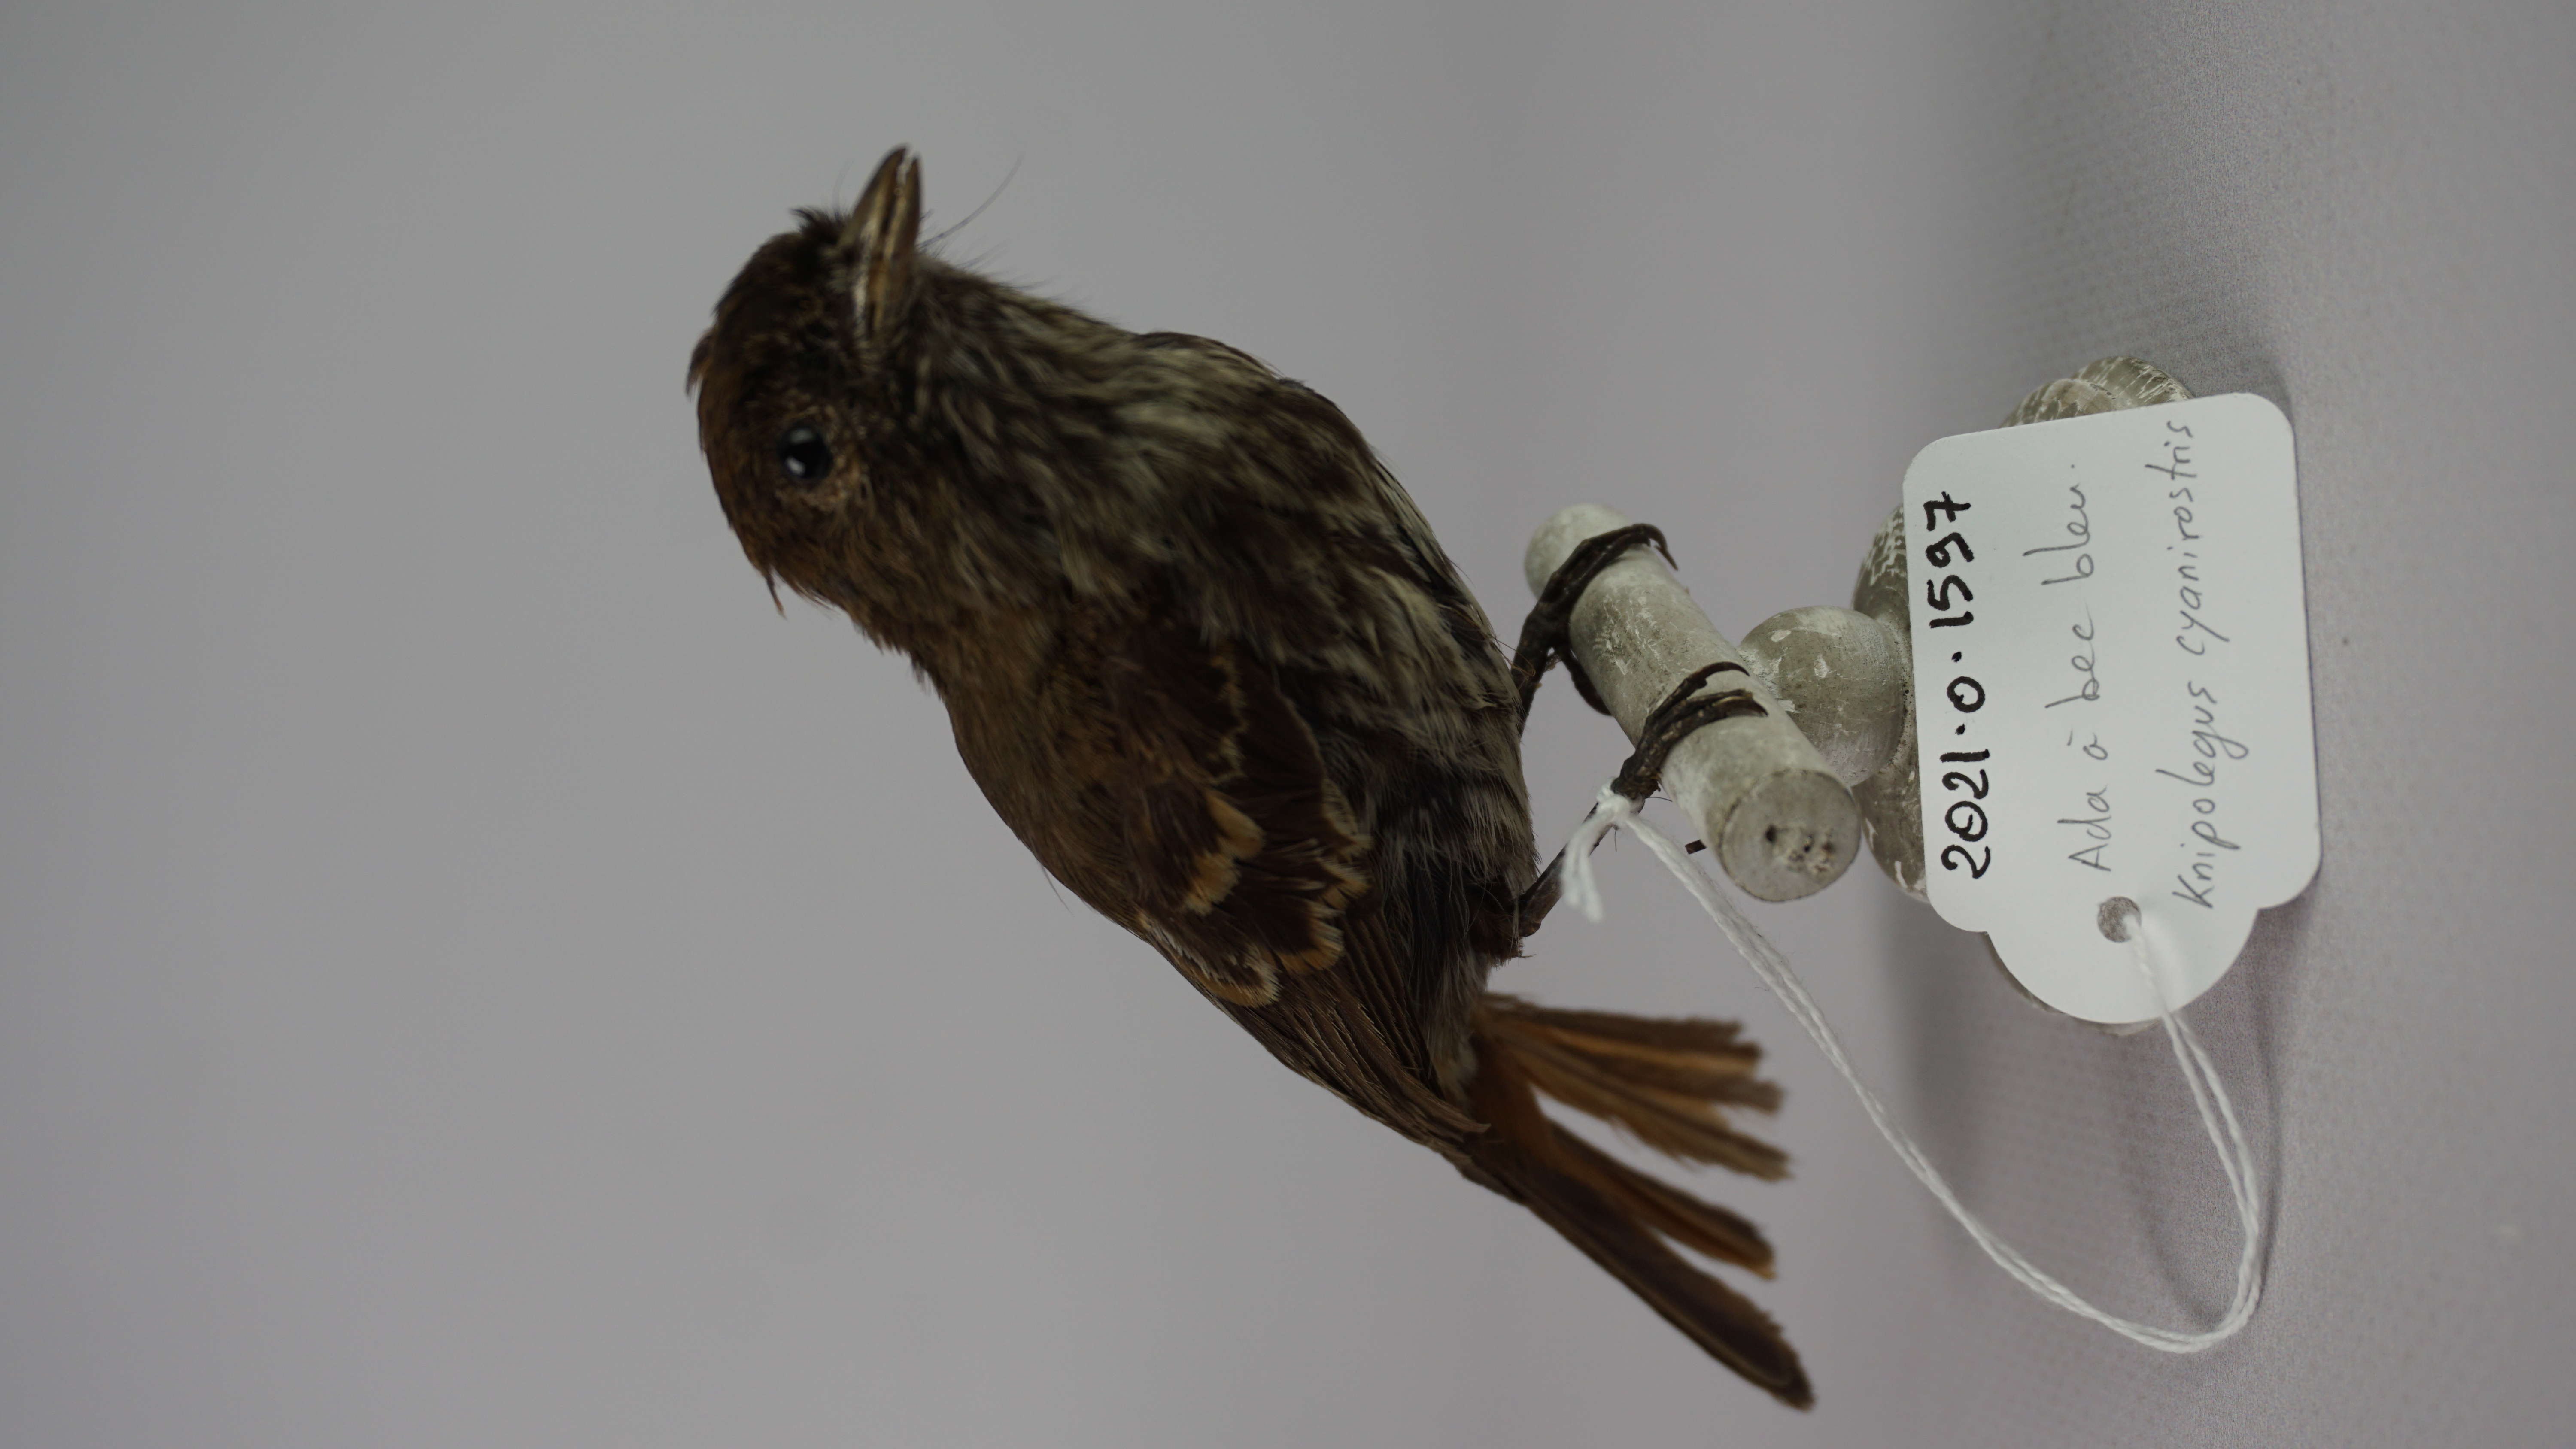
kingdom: Animalia
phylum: Chordata
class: Aves
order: Passeriformes
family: Tyrannidae
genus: Knipolegus
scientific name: Knipolegus cyanirostris
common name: Blue-billed black tyrant
